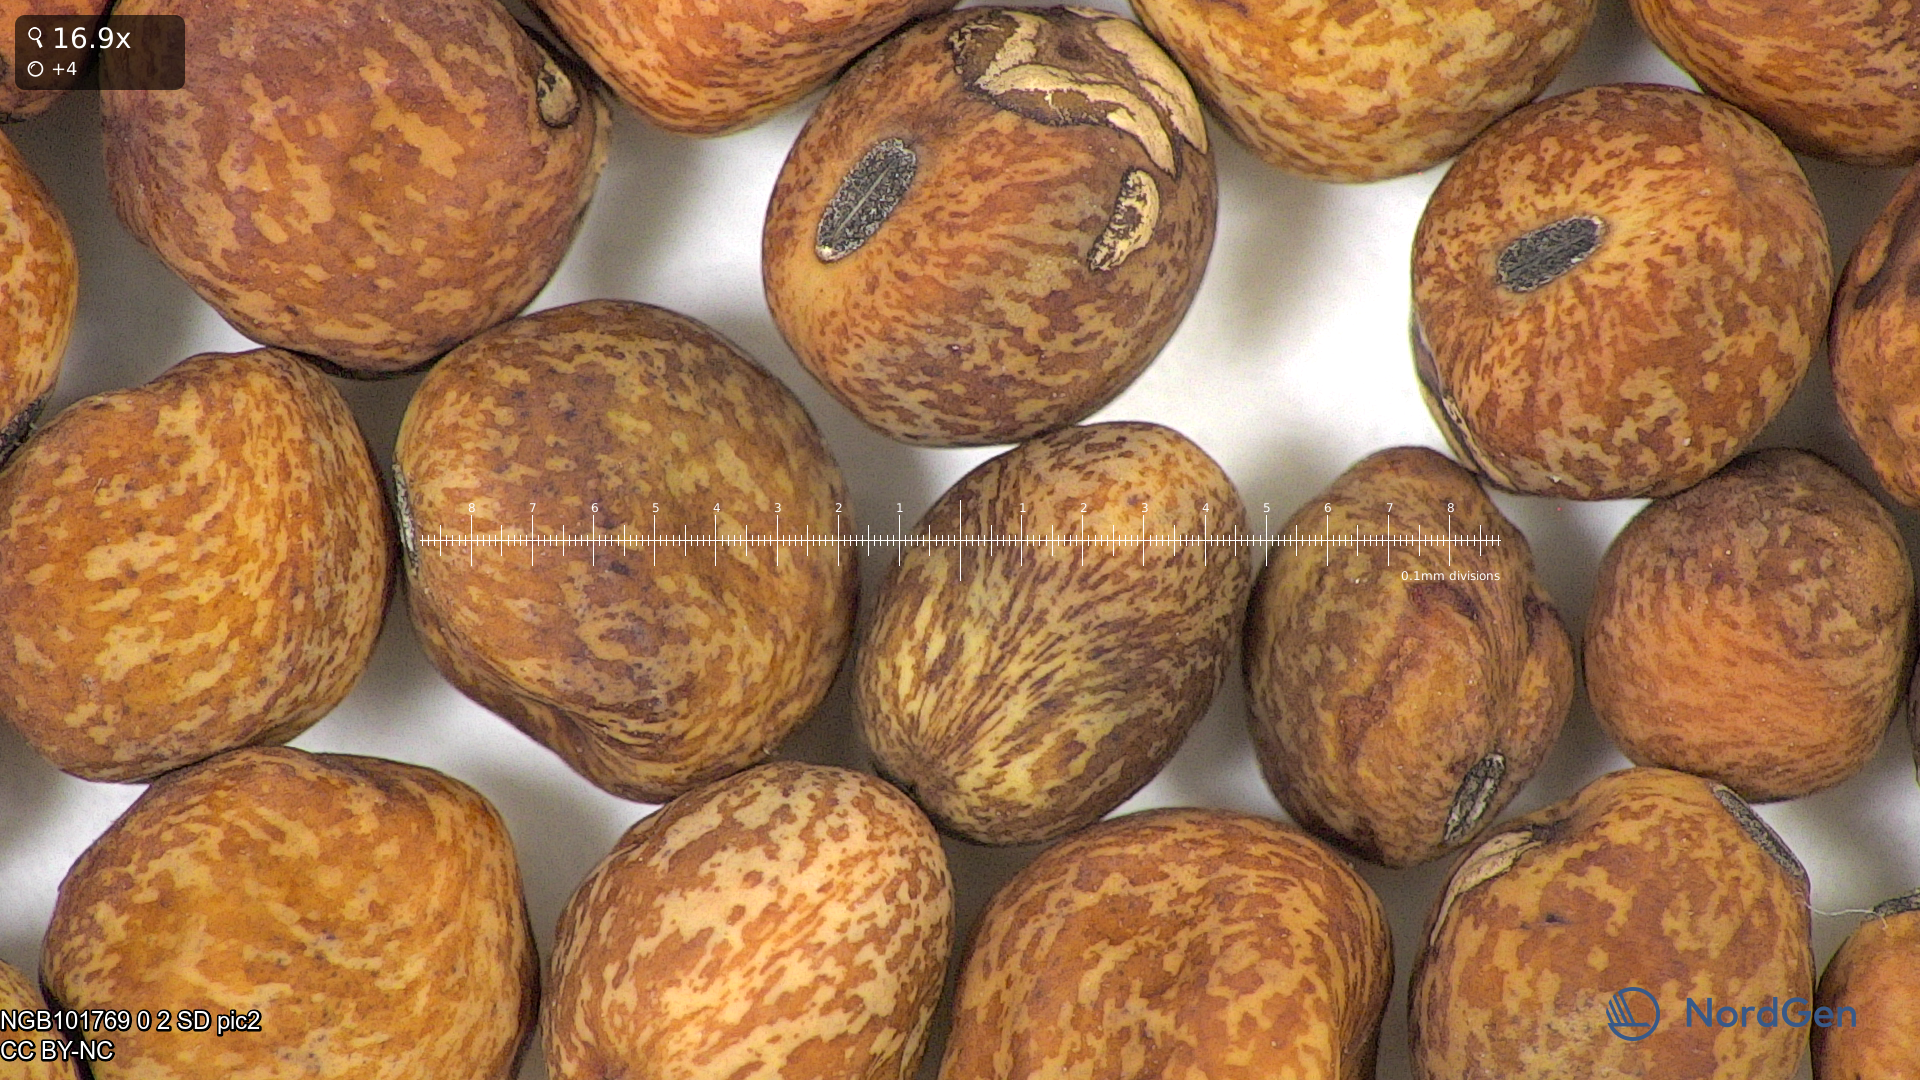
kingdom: Plantae
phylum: Tracheophyta
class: Magnoliopsida
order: Fabales
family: Fabaceae
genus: Lathyrus
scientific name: Lathyrus oleraceus
